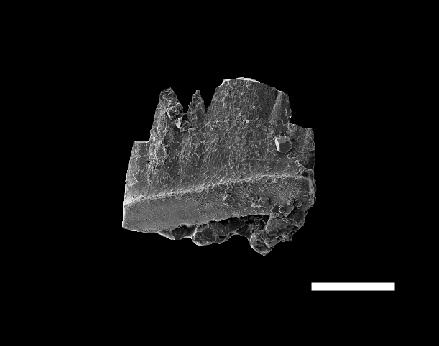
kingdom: Animalia
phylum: Chordata
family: Balognathidae
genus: Amorphognathus
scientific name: Amorphognathus
